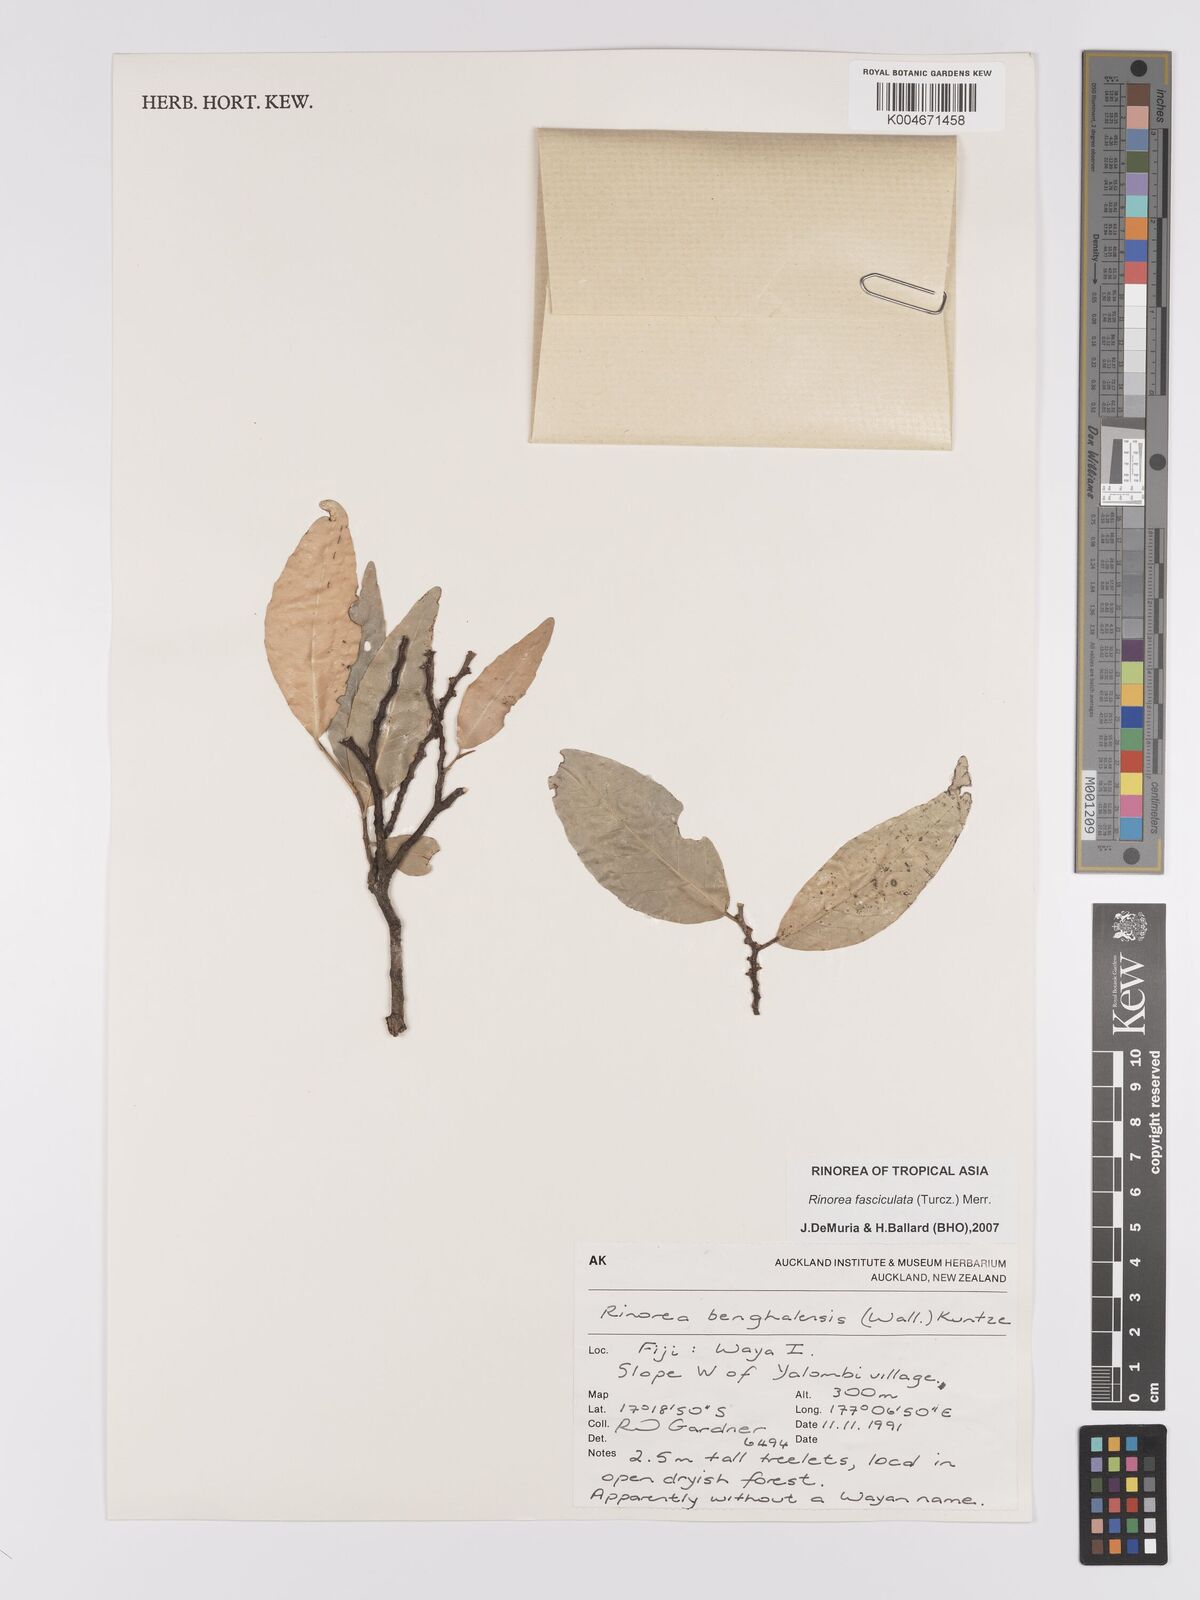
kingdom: Plantae
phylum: Tracheophyta
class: Magnoliopsida
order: Malpighiales
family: Violaceae
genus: Rinorea
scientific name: Rinorea bengalensis
